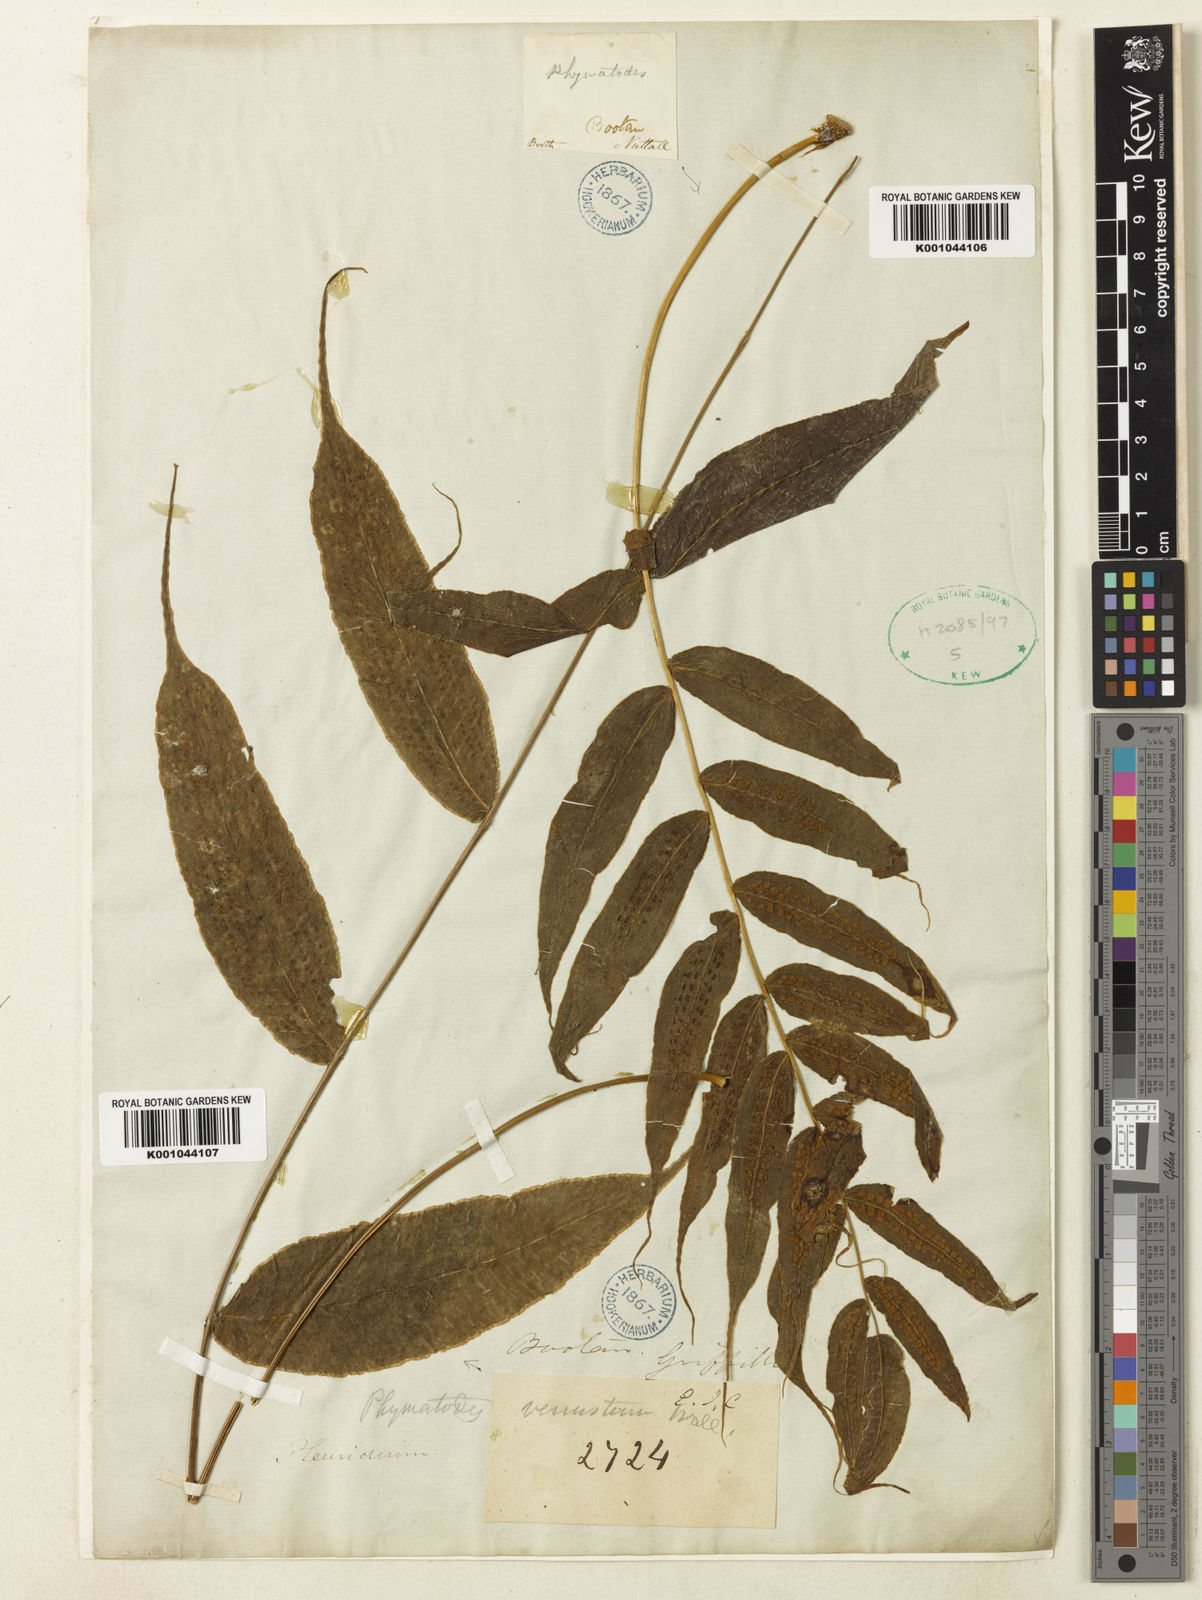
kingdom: Plantae
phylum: Tracheophyta
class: Polypodiopsida
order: Polypodiales
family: Polypodiaceae
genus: Selliguea
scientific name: Selliguea tomentosa
